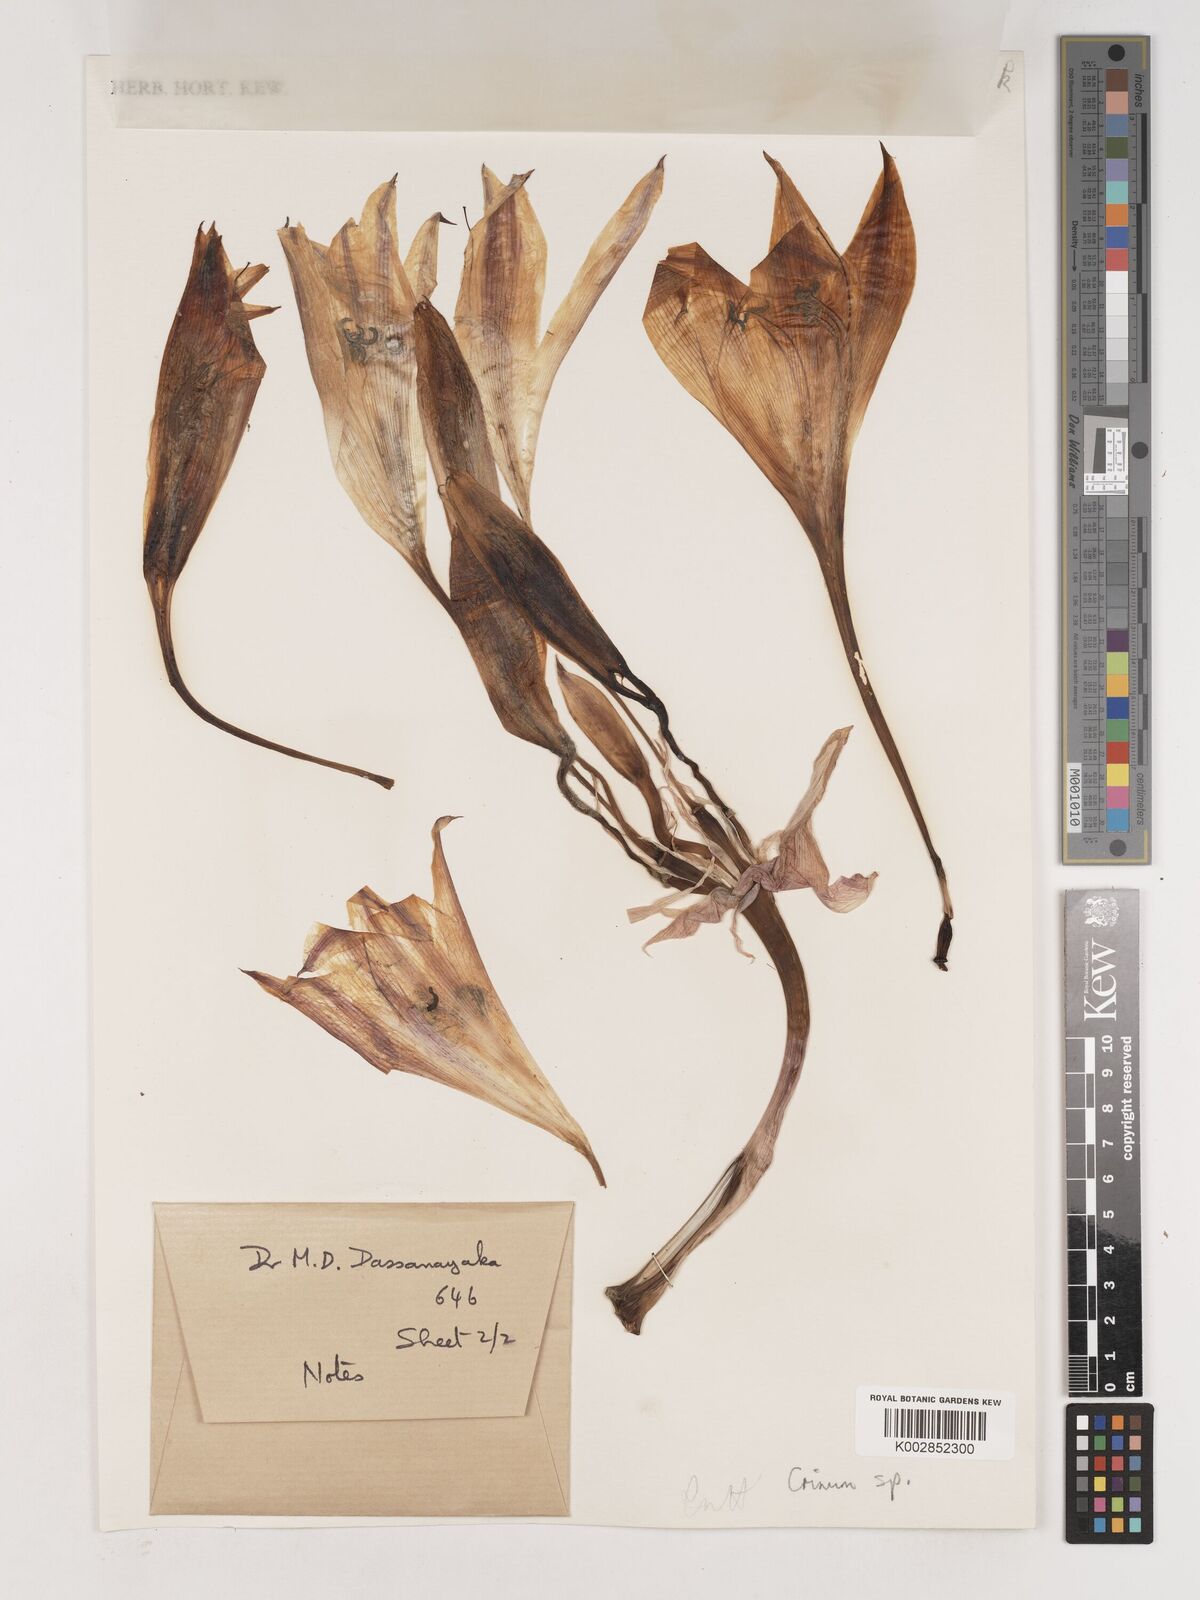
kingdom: Plantae
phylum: Tracheophyta
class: Liliopsida
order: Asparagales
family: Amaryllidaceae
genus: Crinum
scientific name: Crinum
